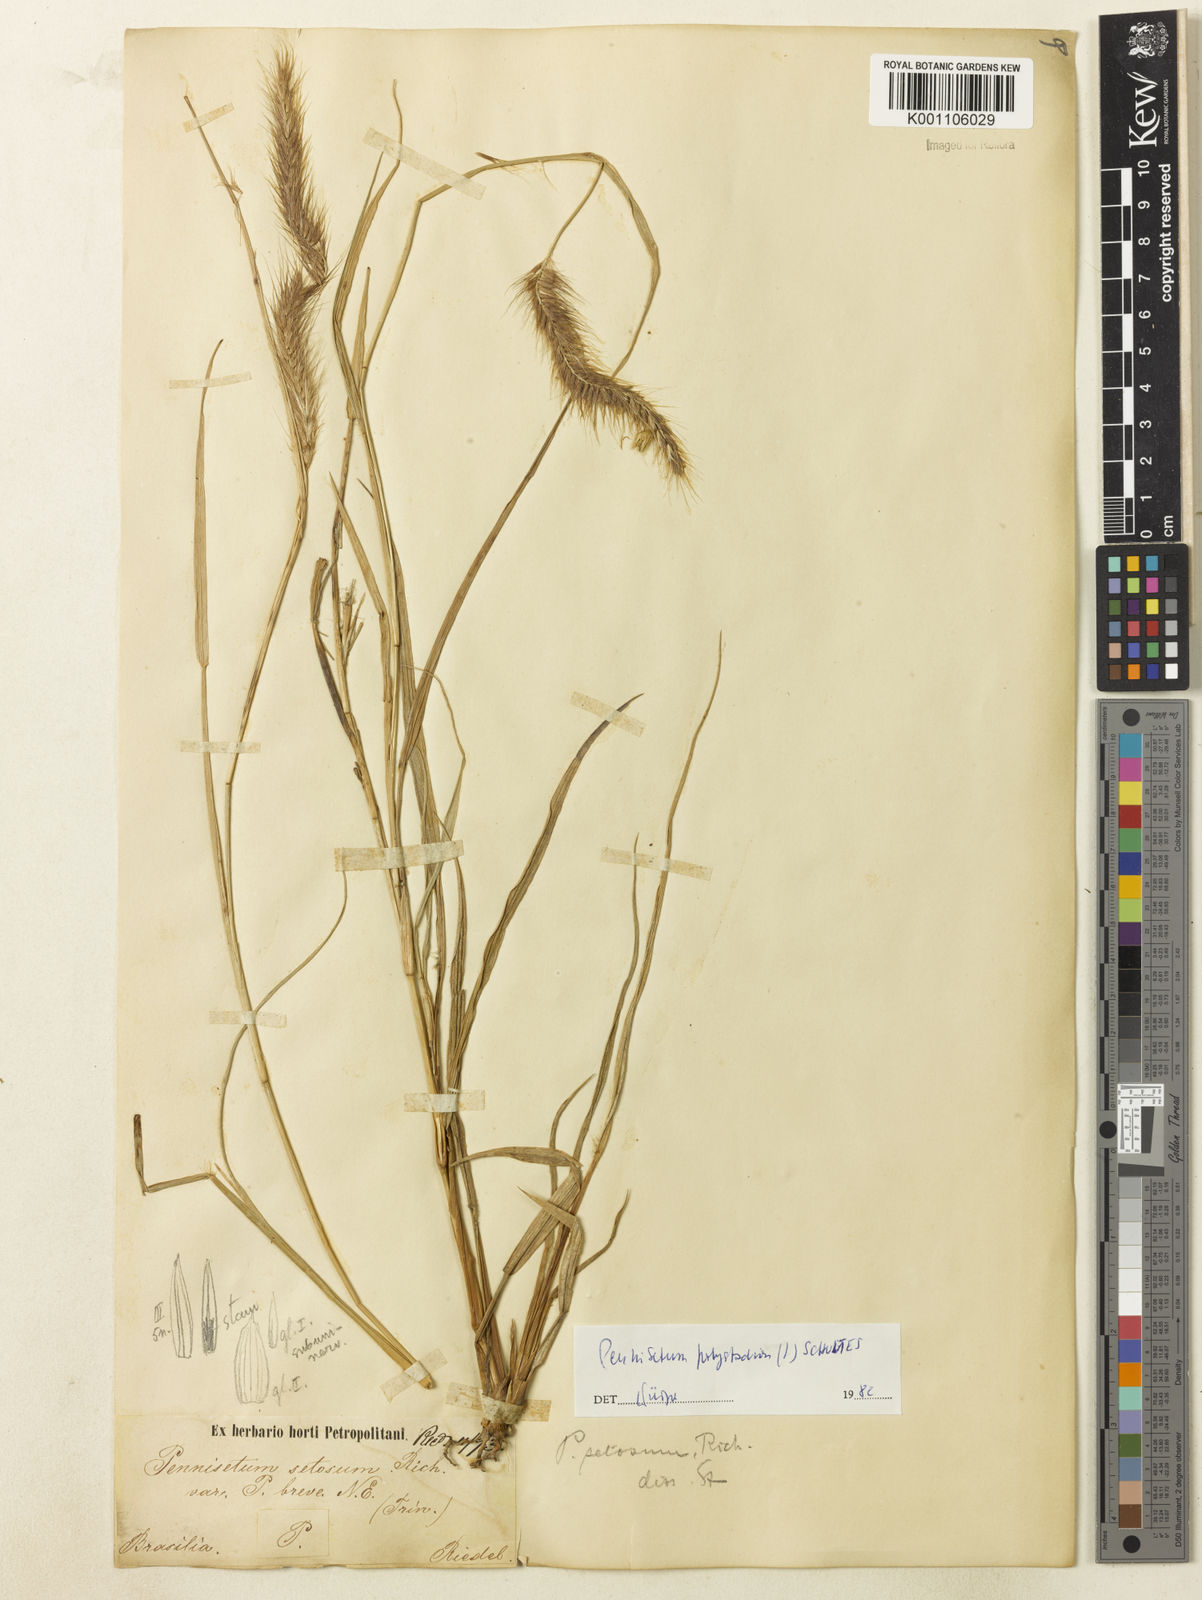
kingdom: Plantae
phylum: Tracheophyta
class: Liliopsida
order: Poales
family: Poaceae
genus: Setaria
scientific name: Setaria parviflora
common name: Knotroot bristle-grass
